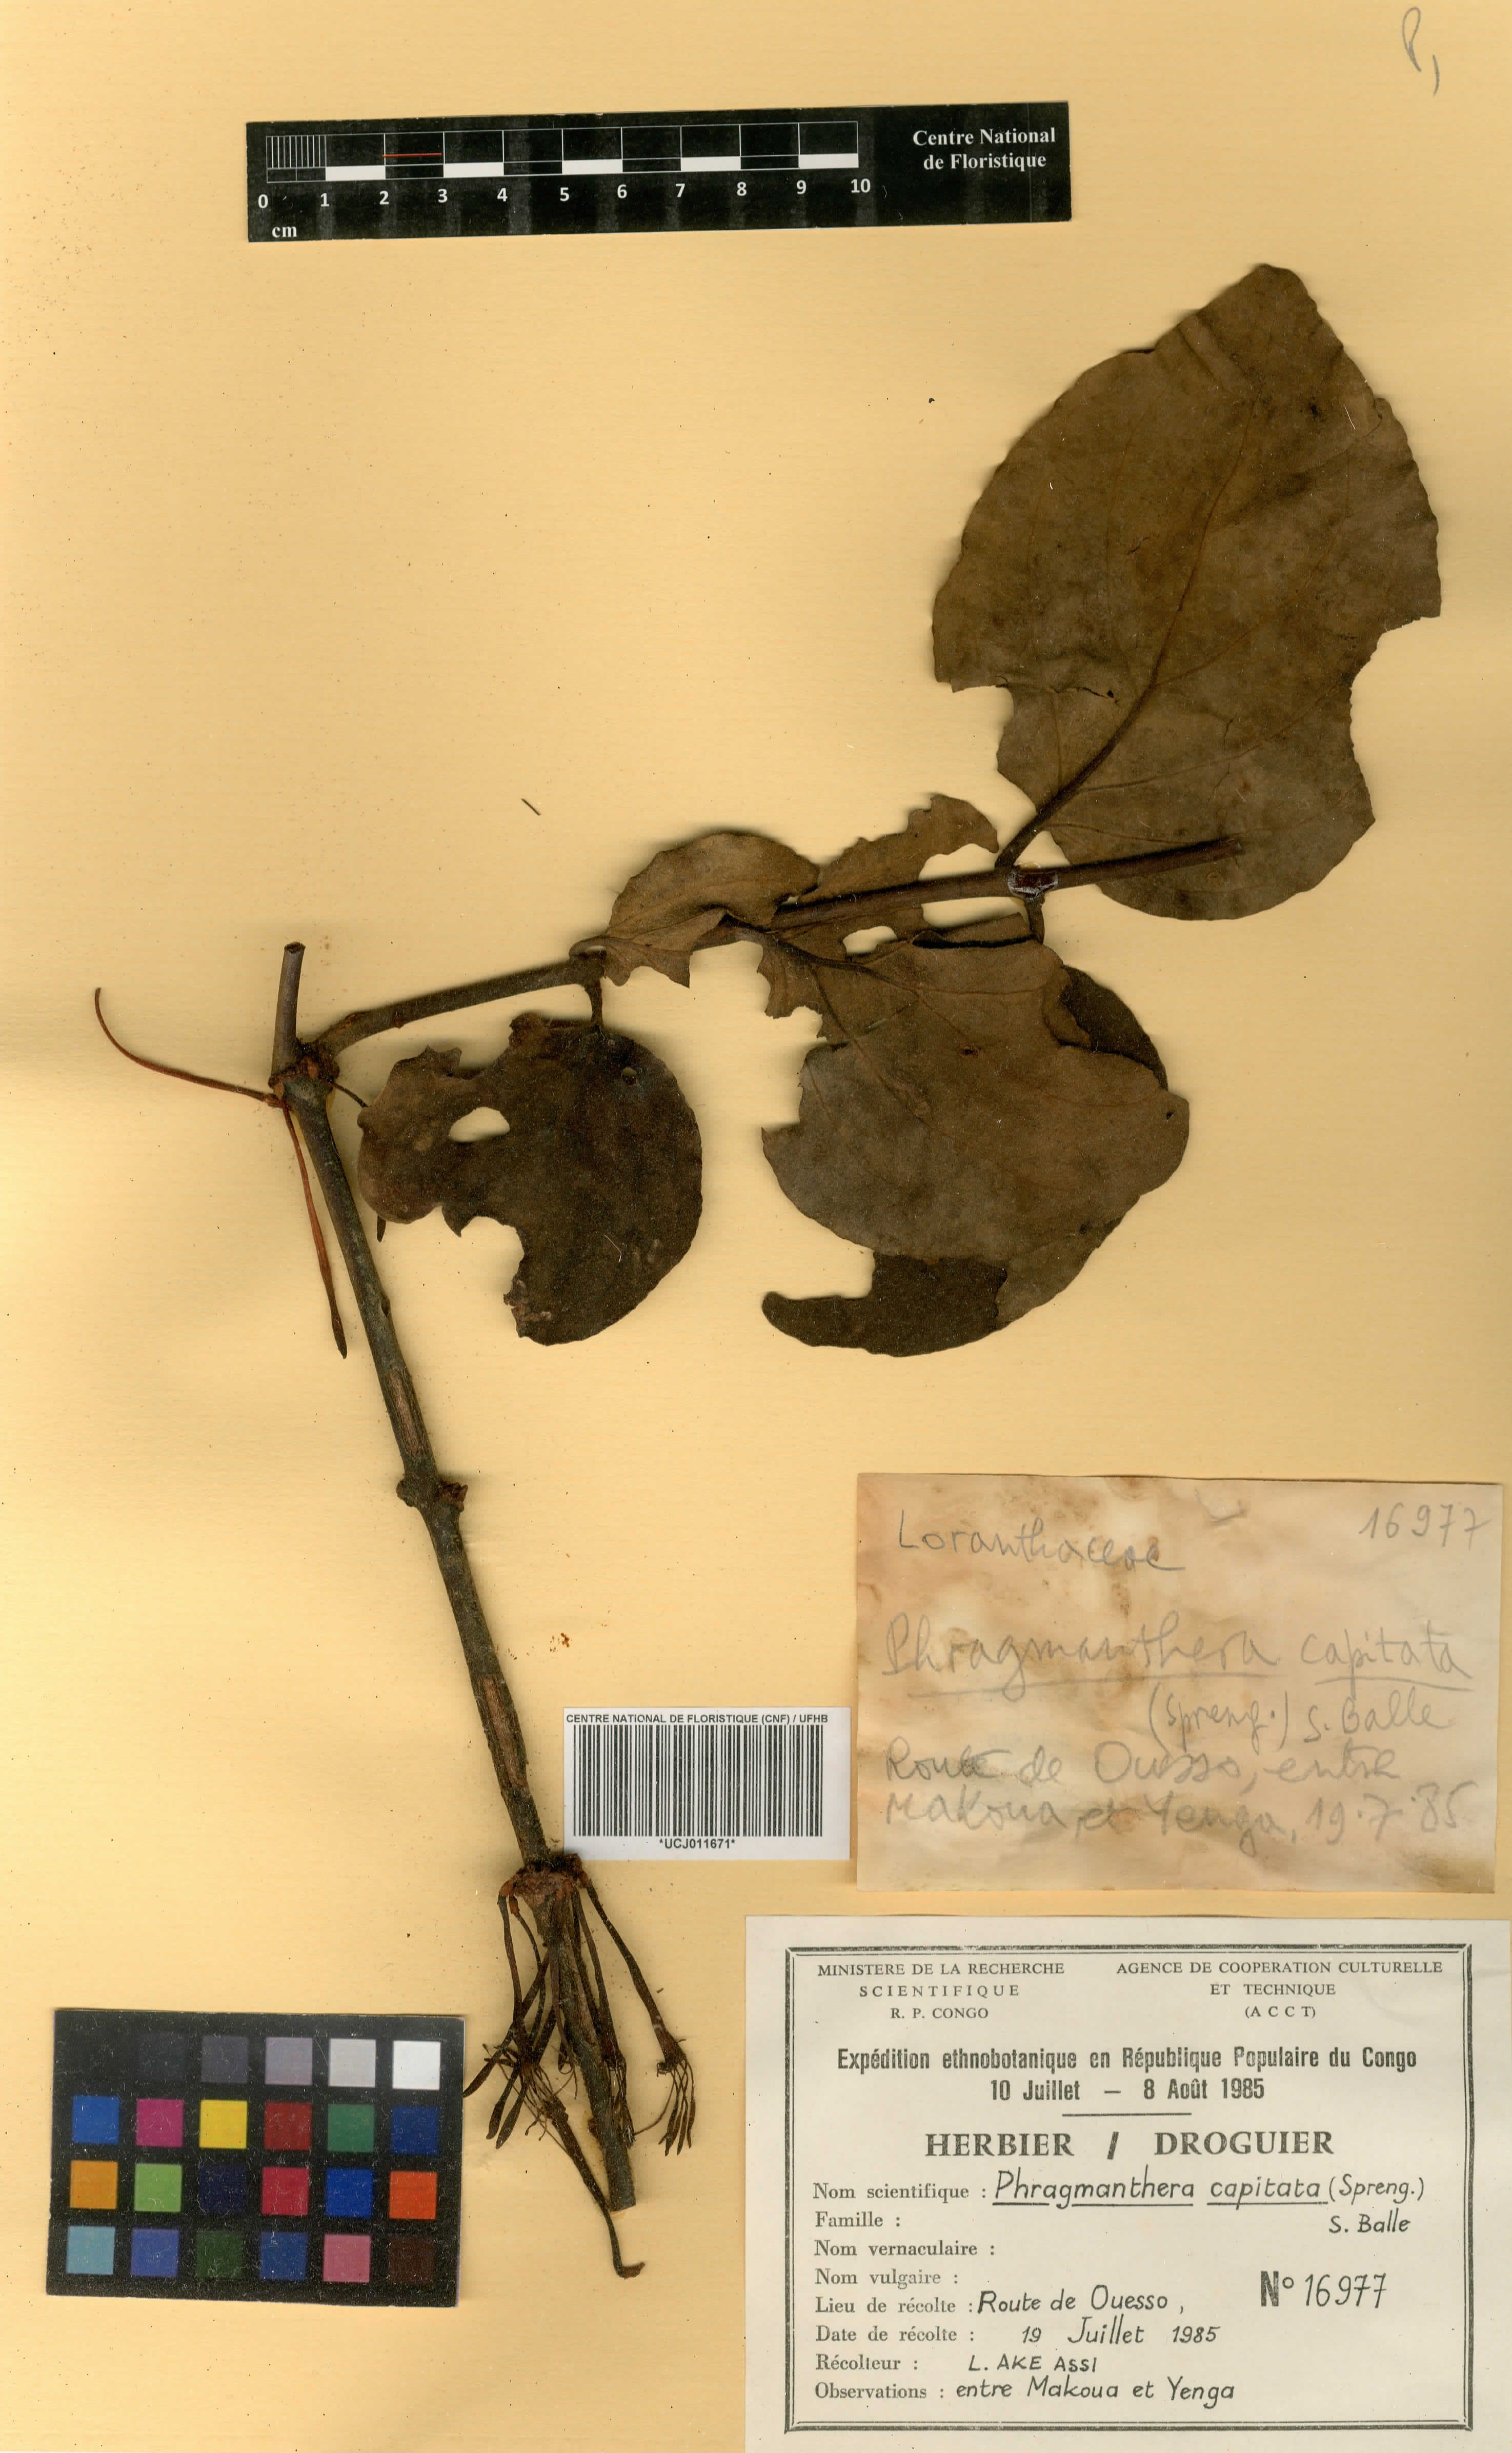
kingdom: Plantae
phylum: Tracheophyta
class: Magnoliopsida
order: Santalales
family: Loranthaceae
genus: Phragmanthera
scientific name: Phragmanthera capitata
